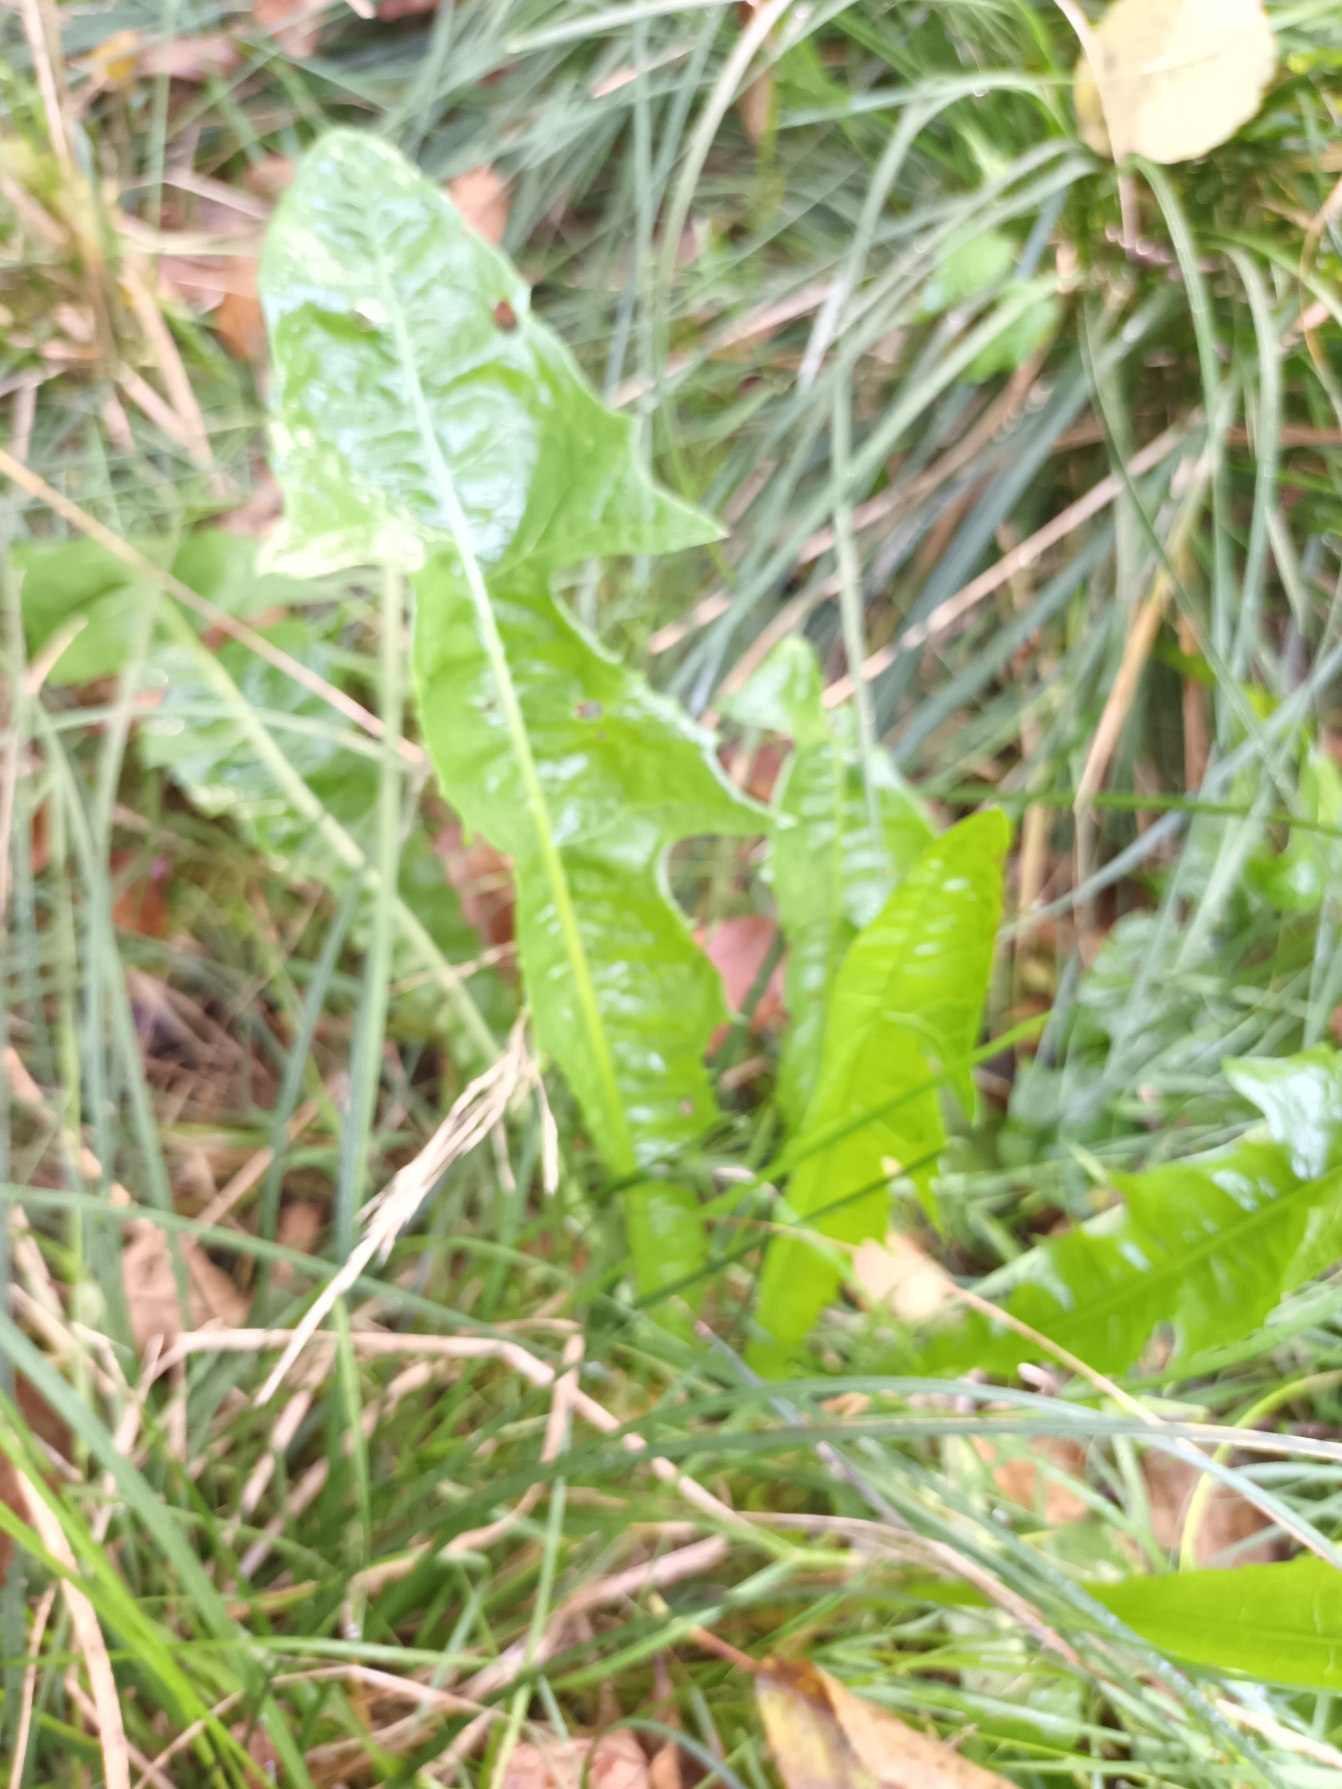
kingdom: Plantae
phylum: Tracheophyta
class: Magnoliopsida
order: Asterales
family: Asteraceae
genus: Taraxacum
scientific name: Taraxacum
